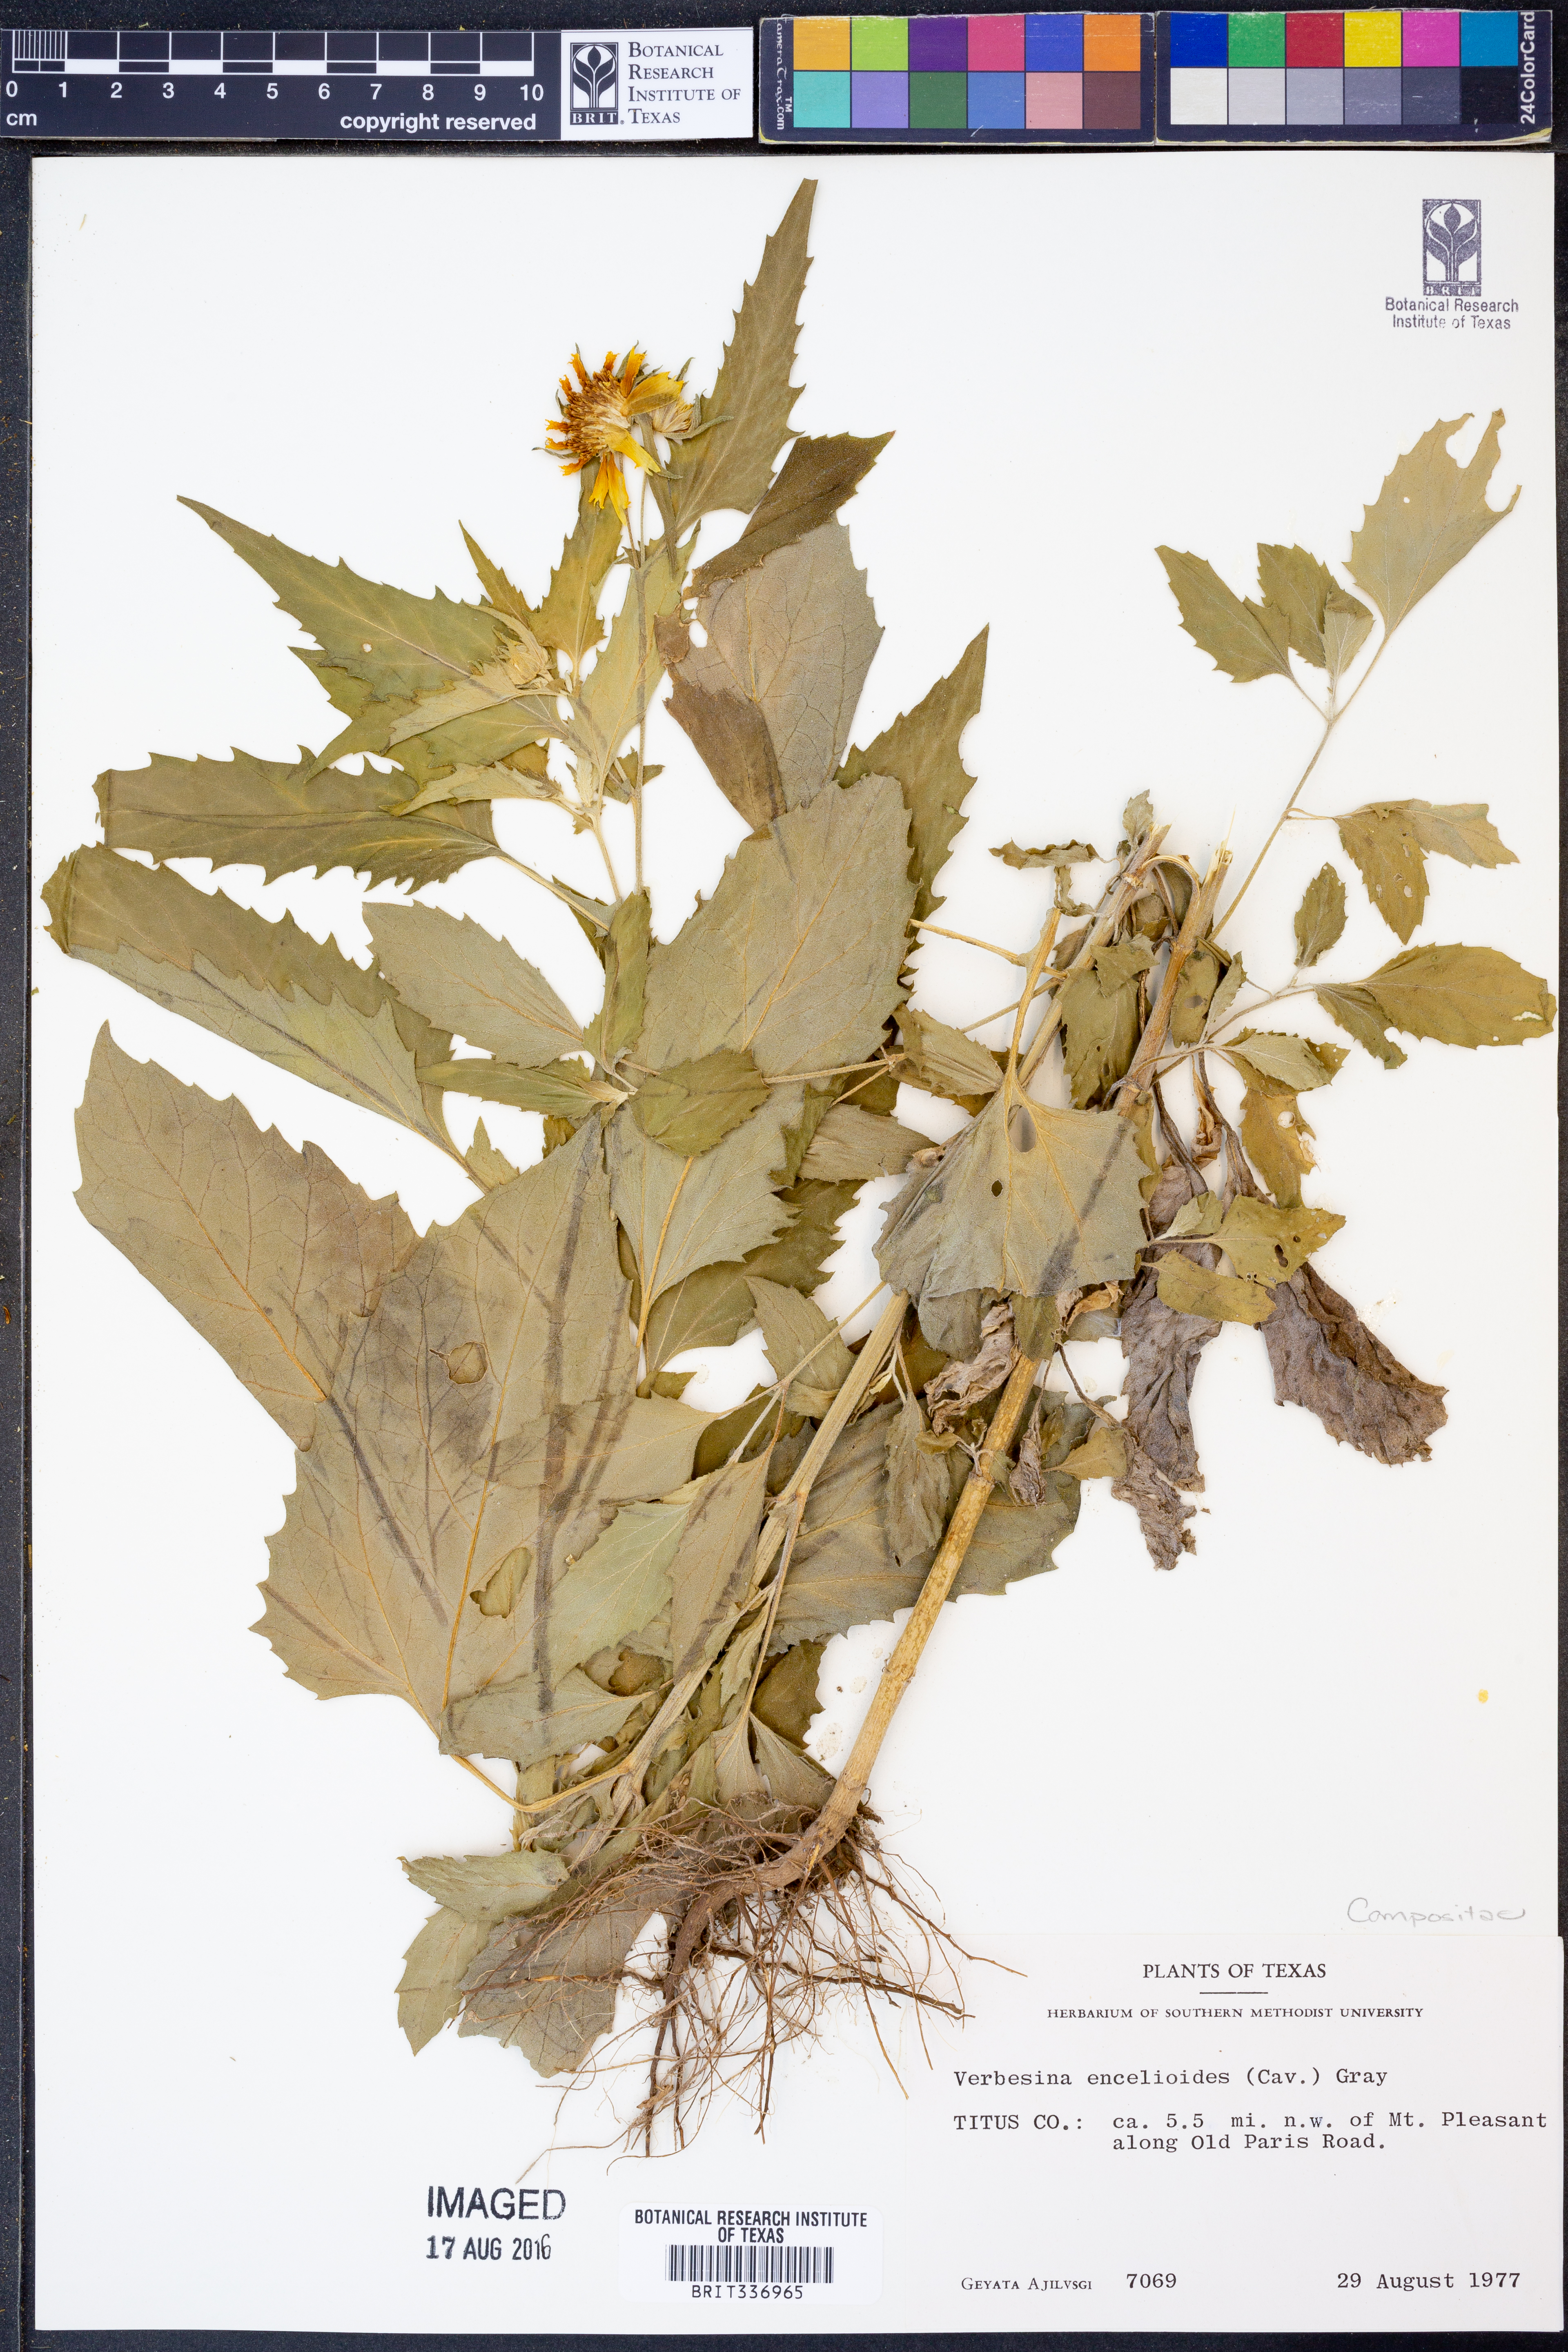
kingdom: Plantae
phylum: Tracheophyta
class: Magnoliopsida
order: Asterales
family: Asteraceae
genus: Verbesina
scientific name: Verbesina encelioides
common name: Golden crownbeard
